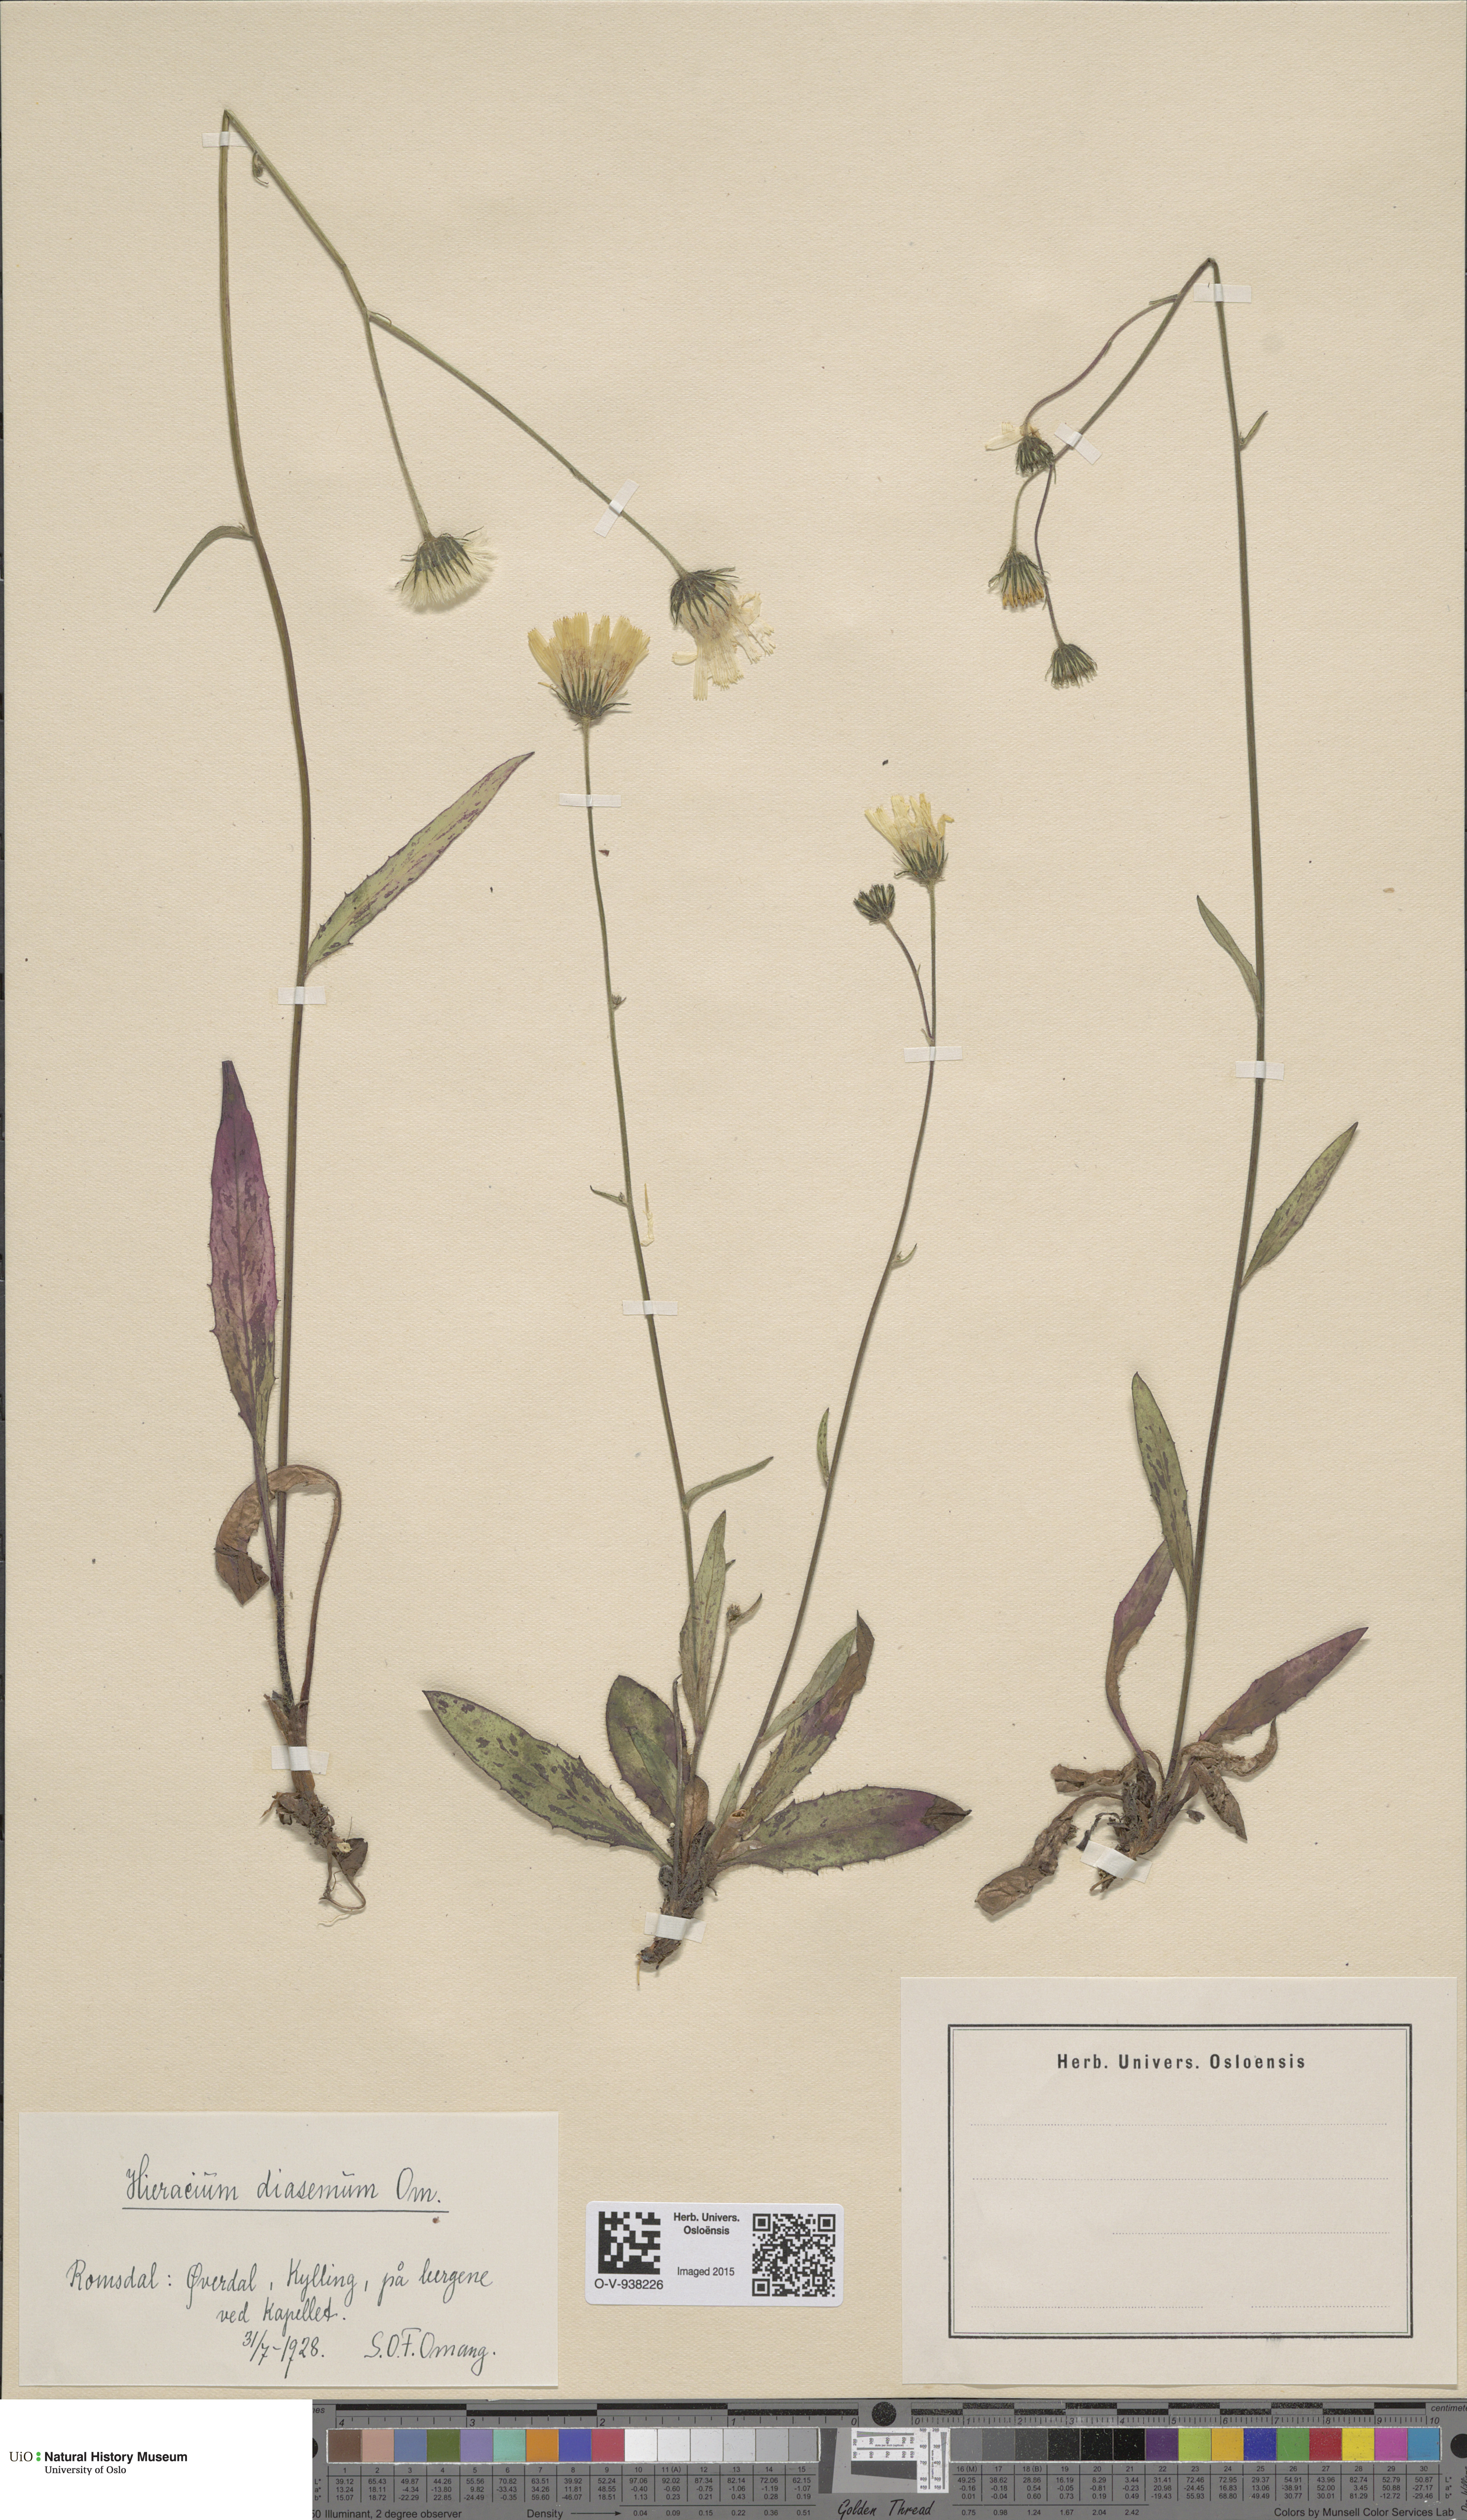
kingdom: Plantae
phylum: Tracheophyta
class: Magnoliopsida
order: Asterales
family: Asteraceae
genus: Hieracium
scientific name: Hieracium saxifragum
